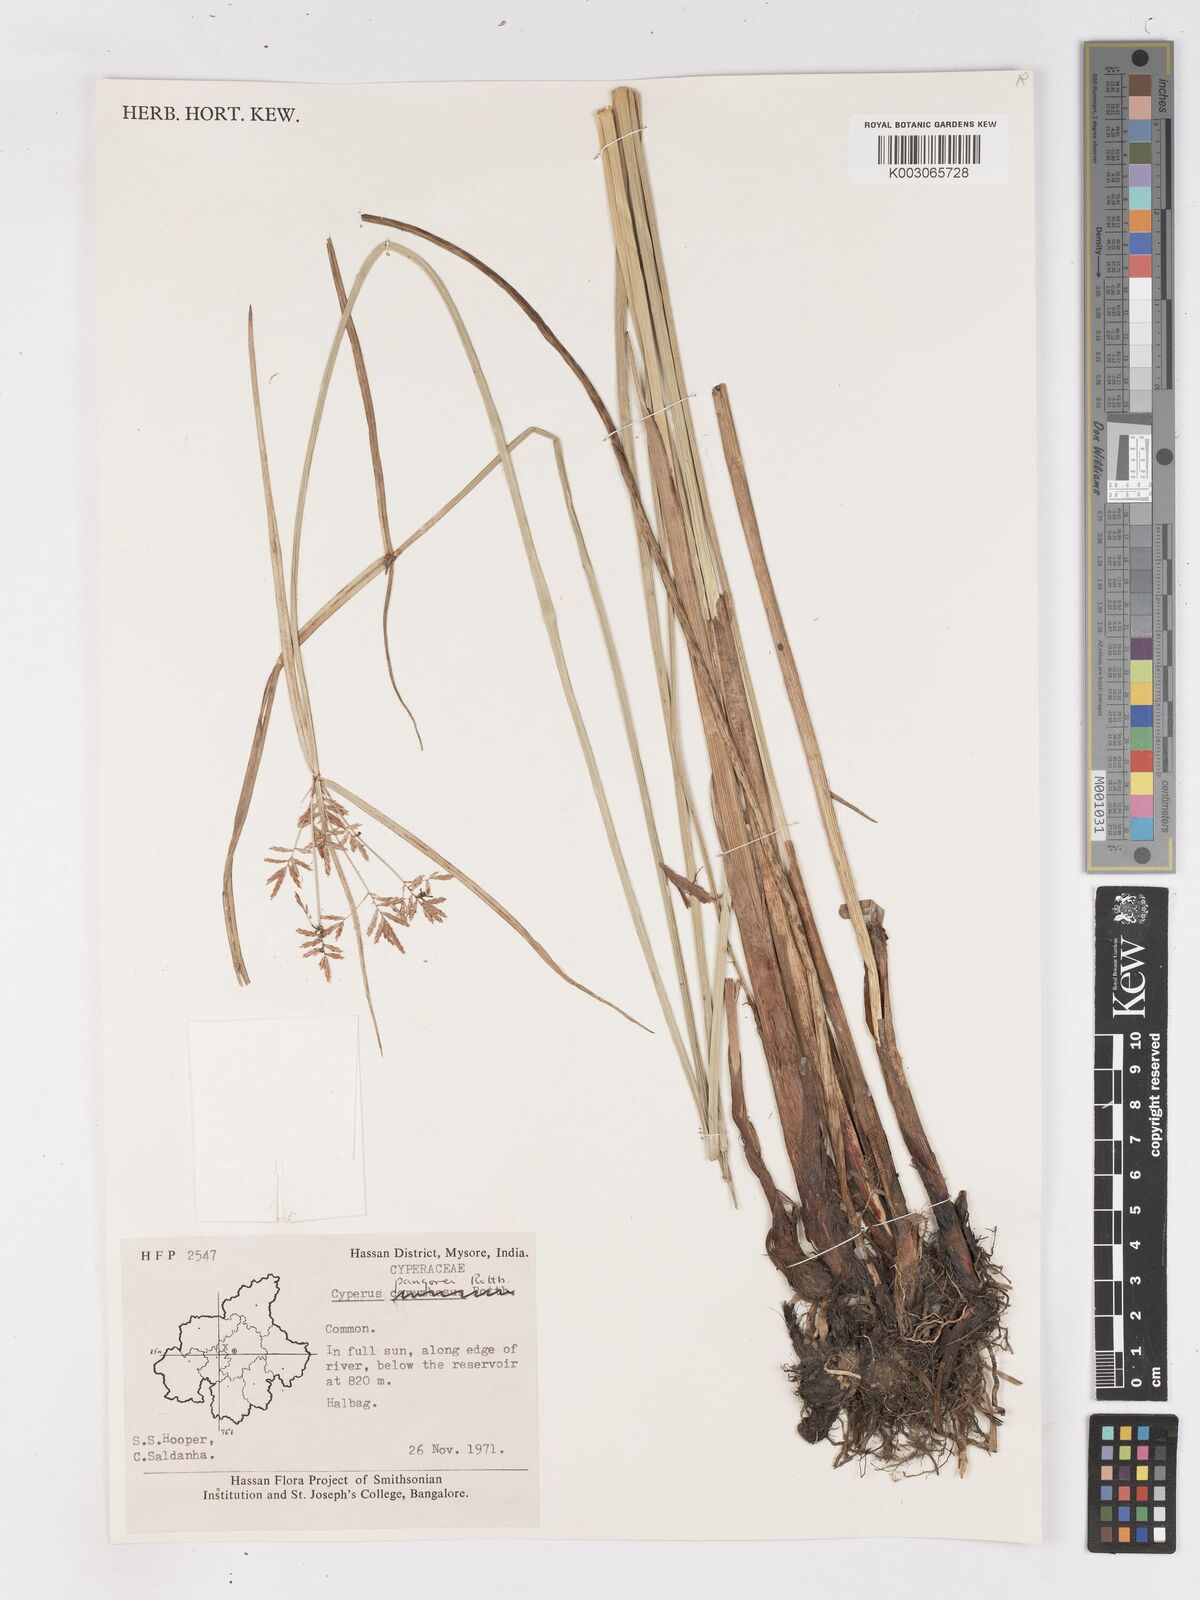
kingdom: Plantae
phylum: Tracheophyta
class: Liliopsida
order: Poales
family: Cyperaceae
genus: Cyperus
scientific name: Cyperus pangorei
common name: Mat sedge
